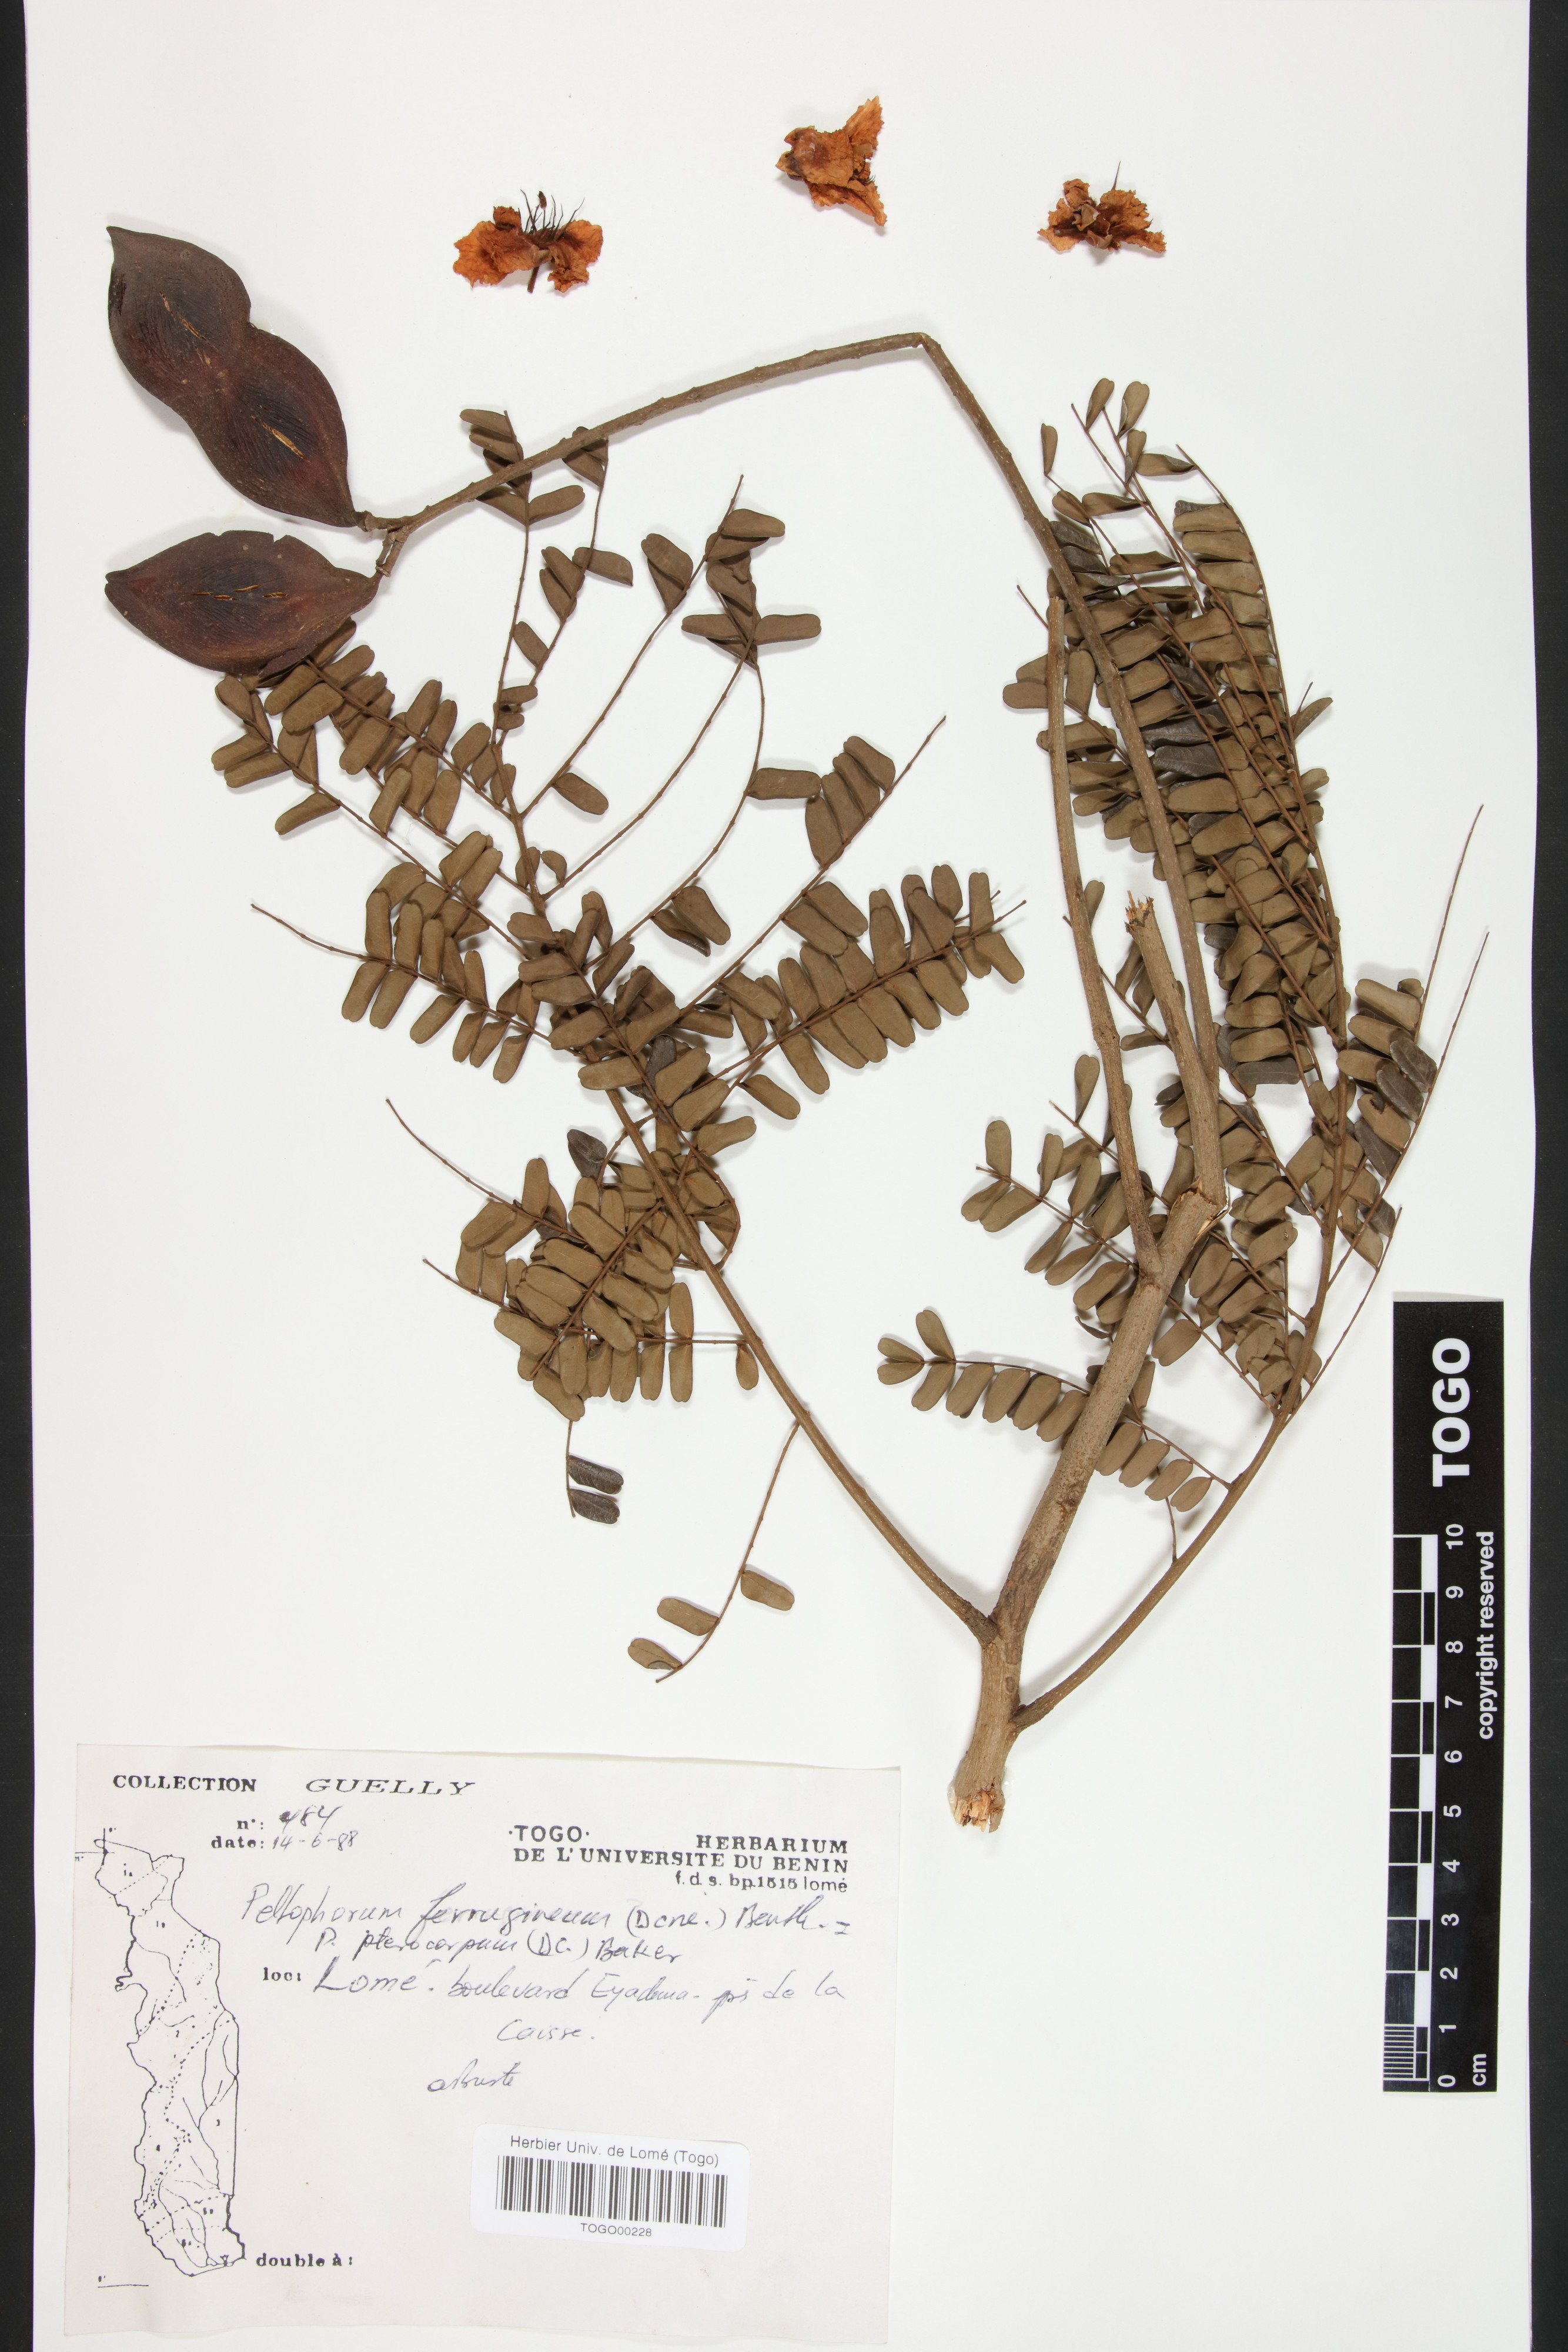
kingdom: Plantae
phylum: Tracheophyta
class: Magnoliopsida
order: Fabales
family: Fabaceae
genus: Peltophorum
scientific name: Peltophorum pterocarpum
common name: Yellow flame
